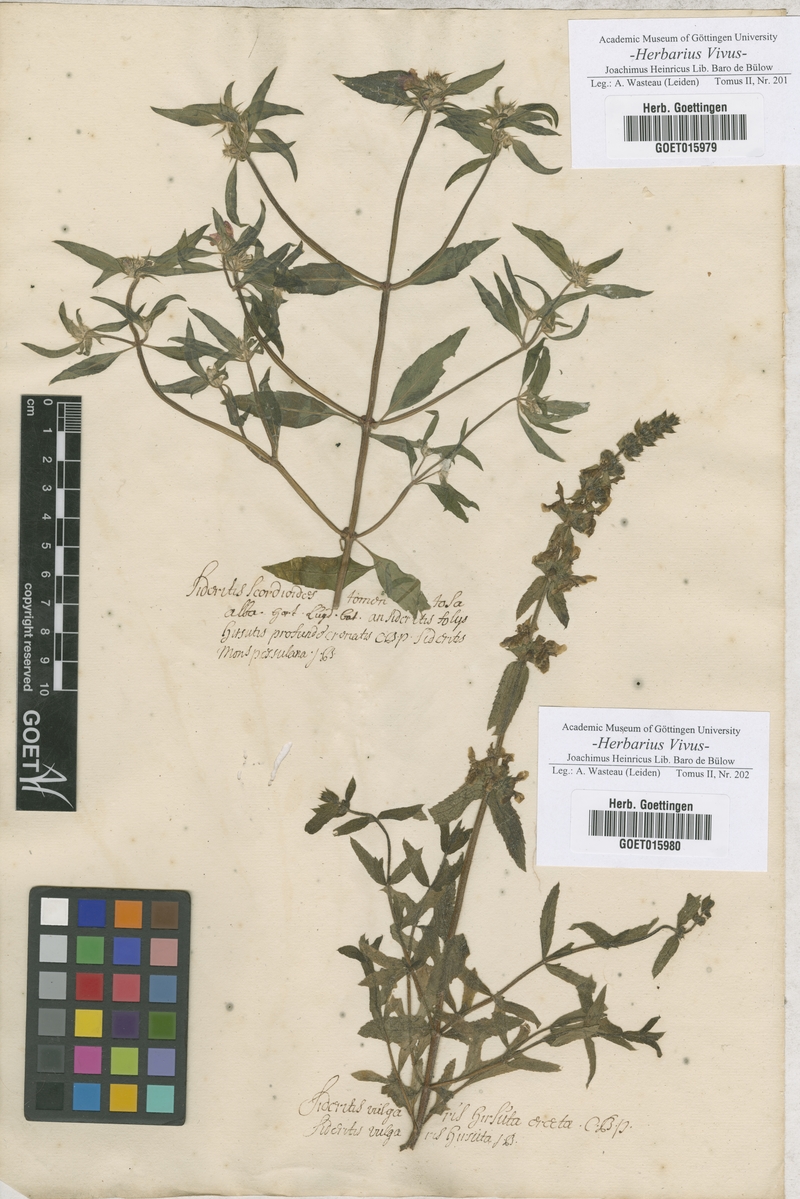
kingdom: Plantae
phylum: Tracheophyta
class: Magnoliopsida
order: Lamiales
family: Lamiaceae
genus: Sideritis
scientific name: Sideritis
